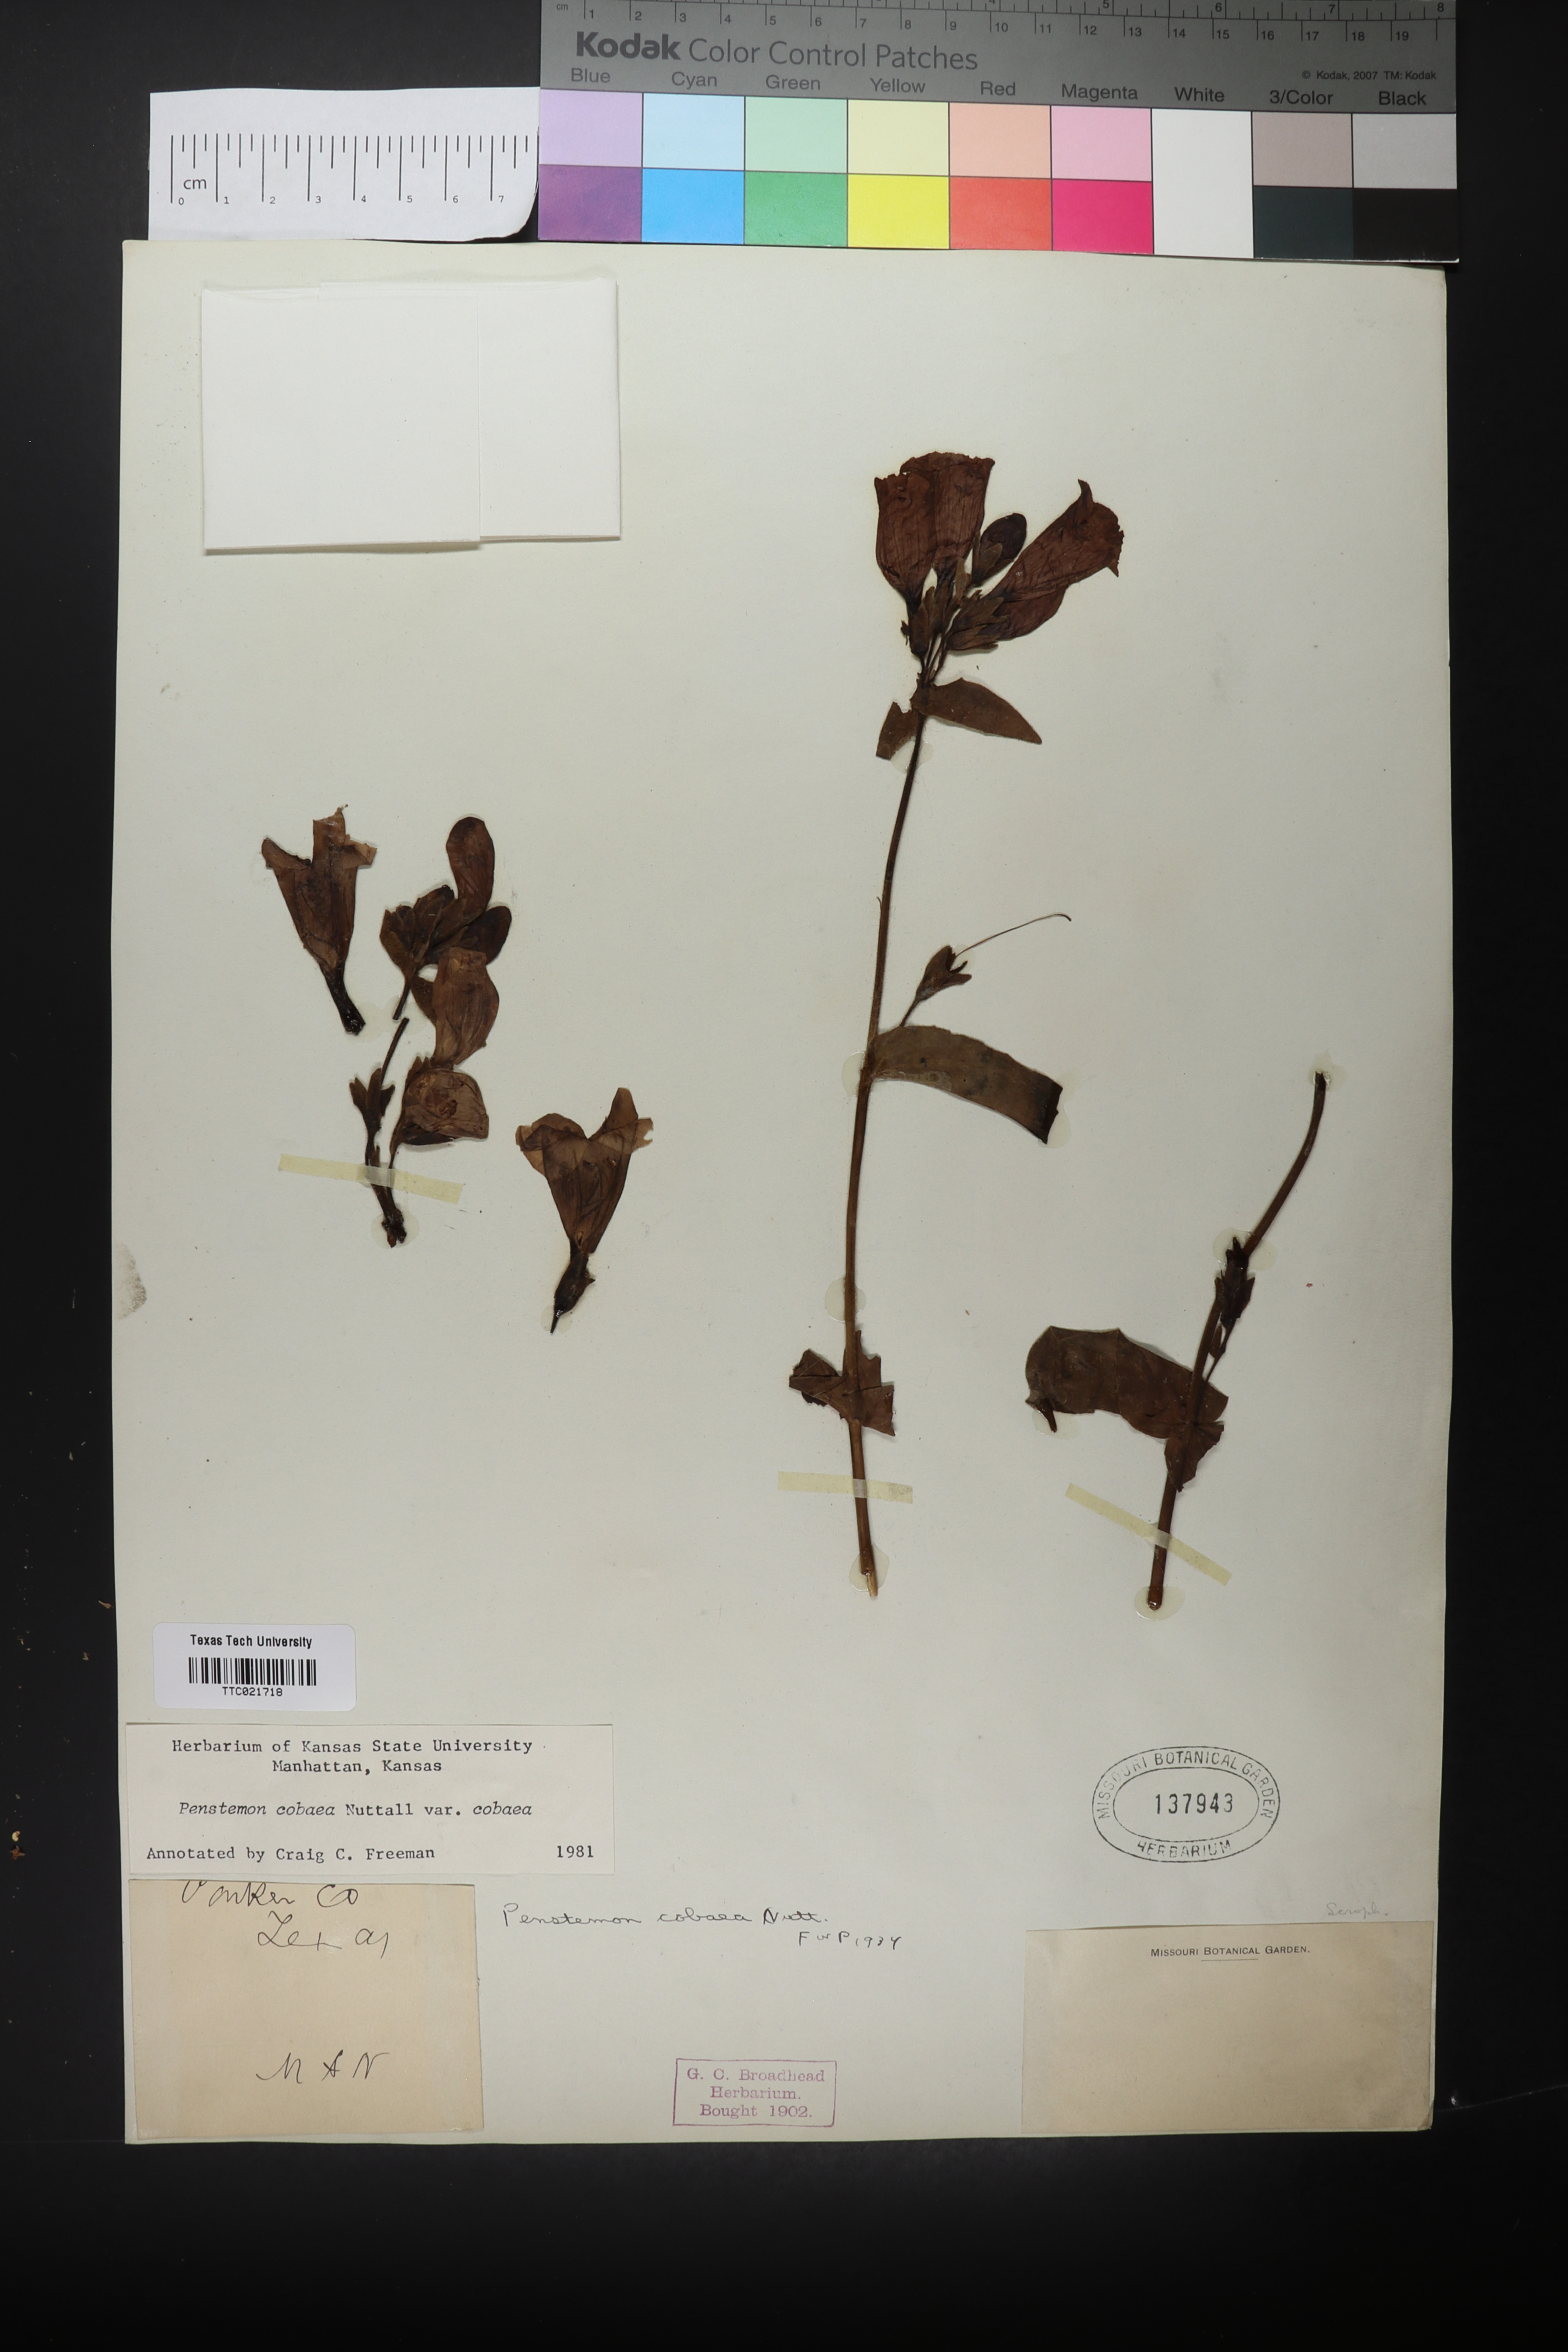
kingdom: Plantae
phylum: Tracheophyta
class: Magnoliopsida
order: Lamiales
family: Plantaginaceae
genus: Penstemon
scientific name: Penstemon cobaea
